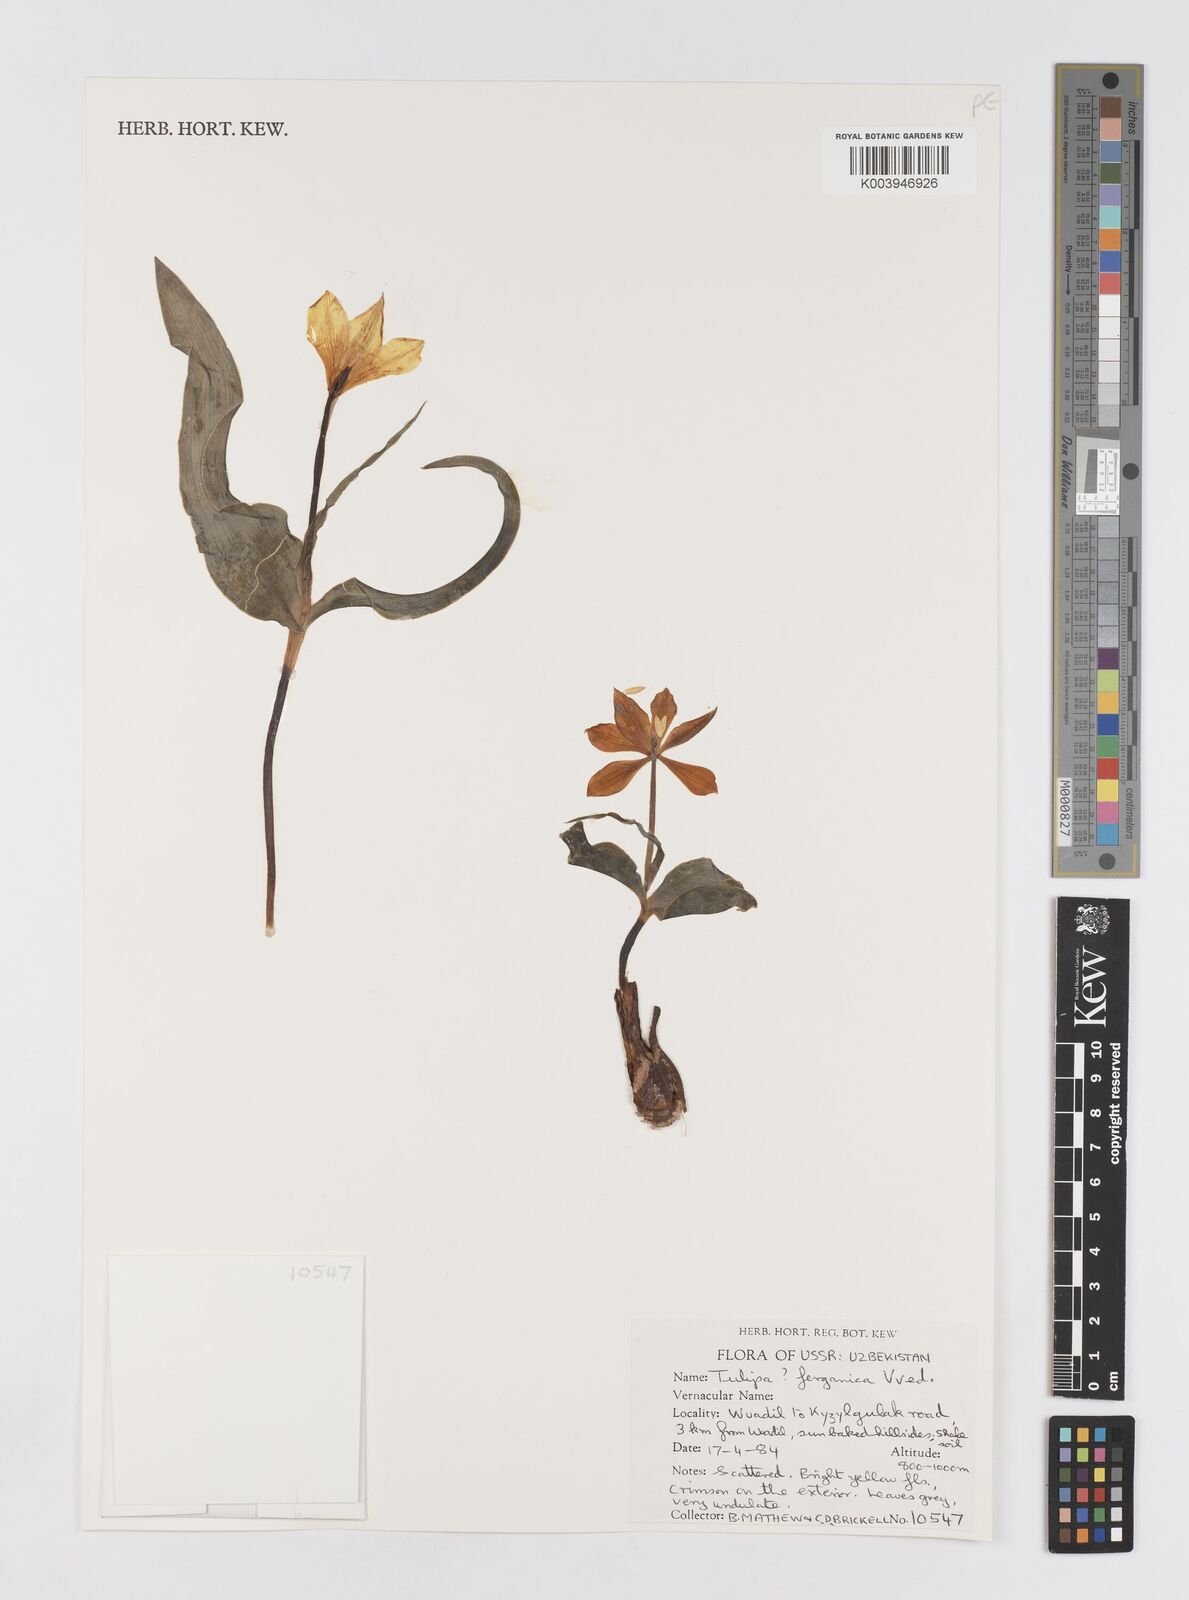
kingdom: Plantae
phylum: Tracheophyta
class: Liliopsida
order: Liliales
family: Liliaceae
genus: Tulipa
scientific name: Tulipa ferganica
